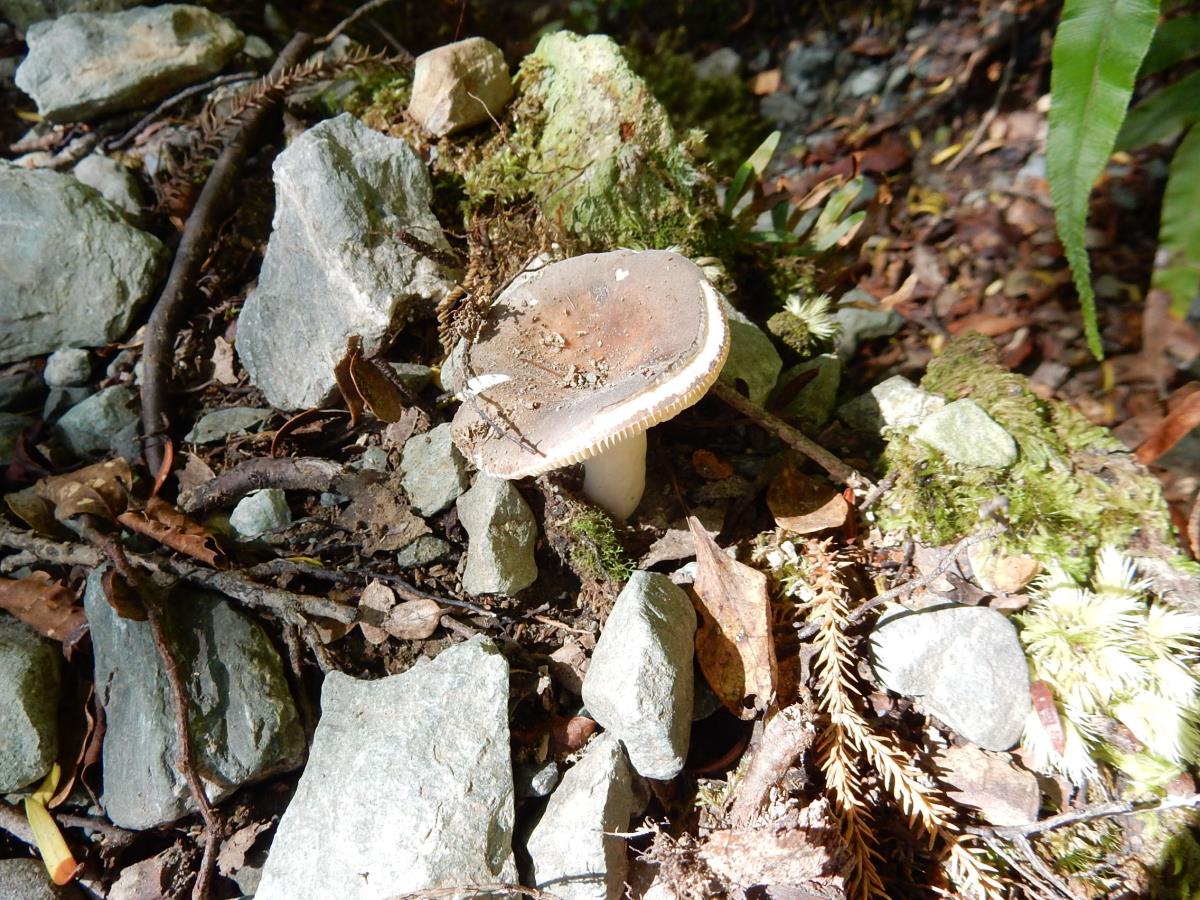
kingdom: Fungi
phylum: Basidiomycota
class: Agaricomycetes
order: Russulales
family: Russulaceae
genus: Russula
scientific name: Russula pilocystidiata
